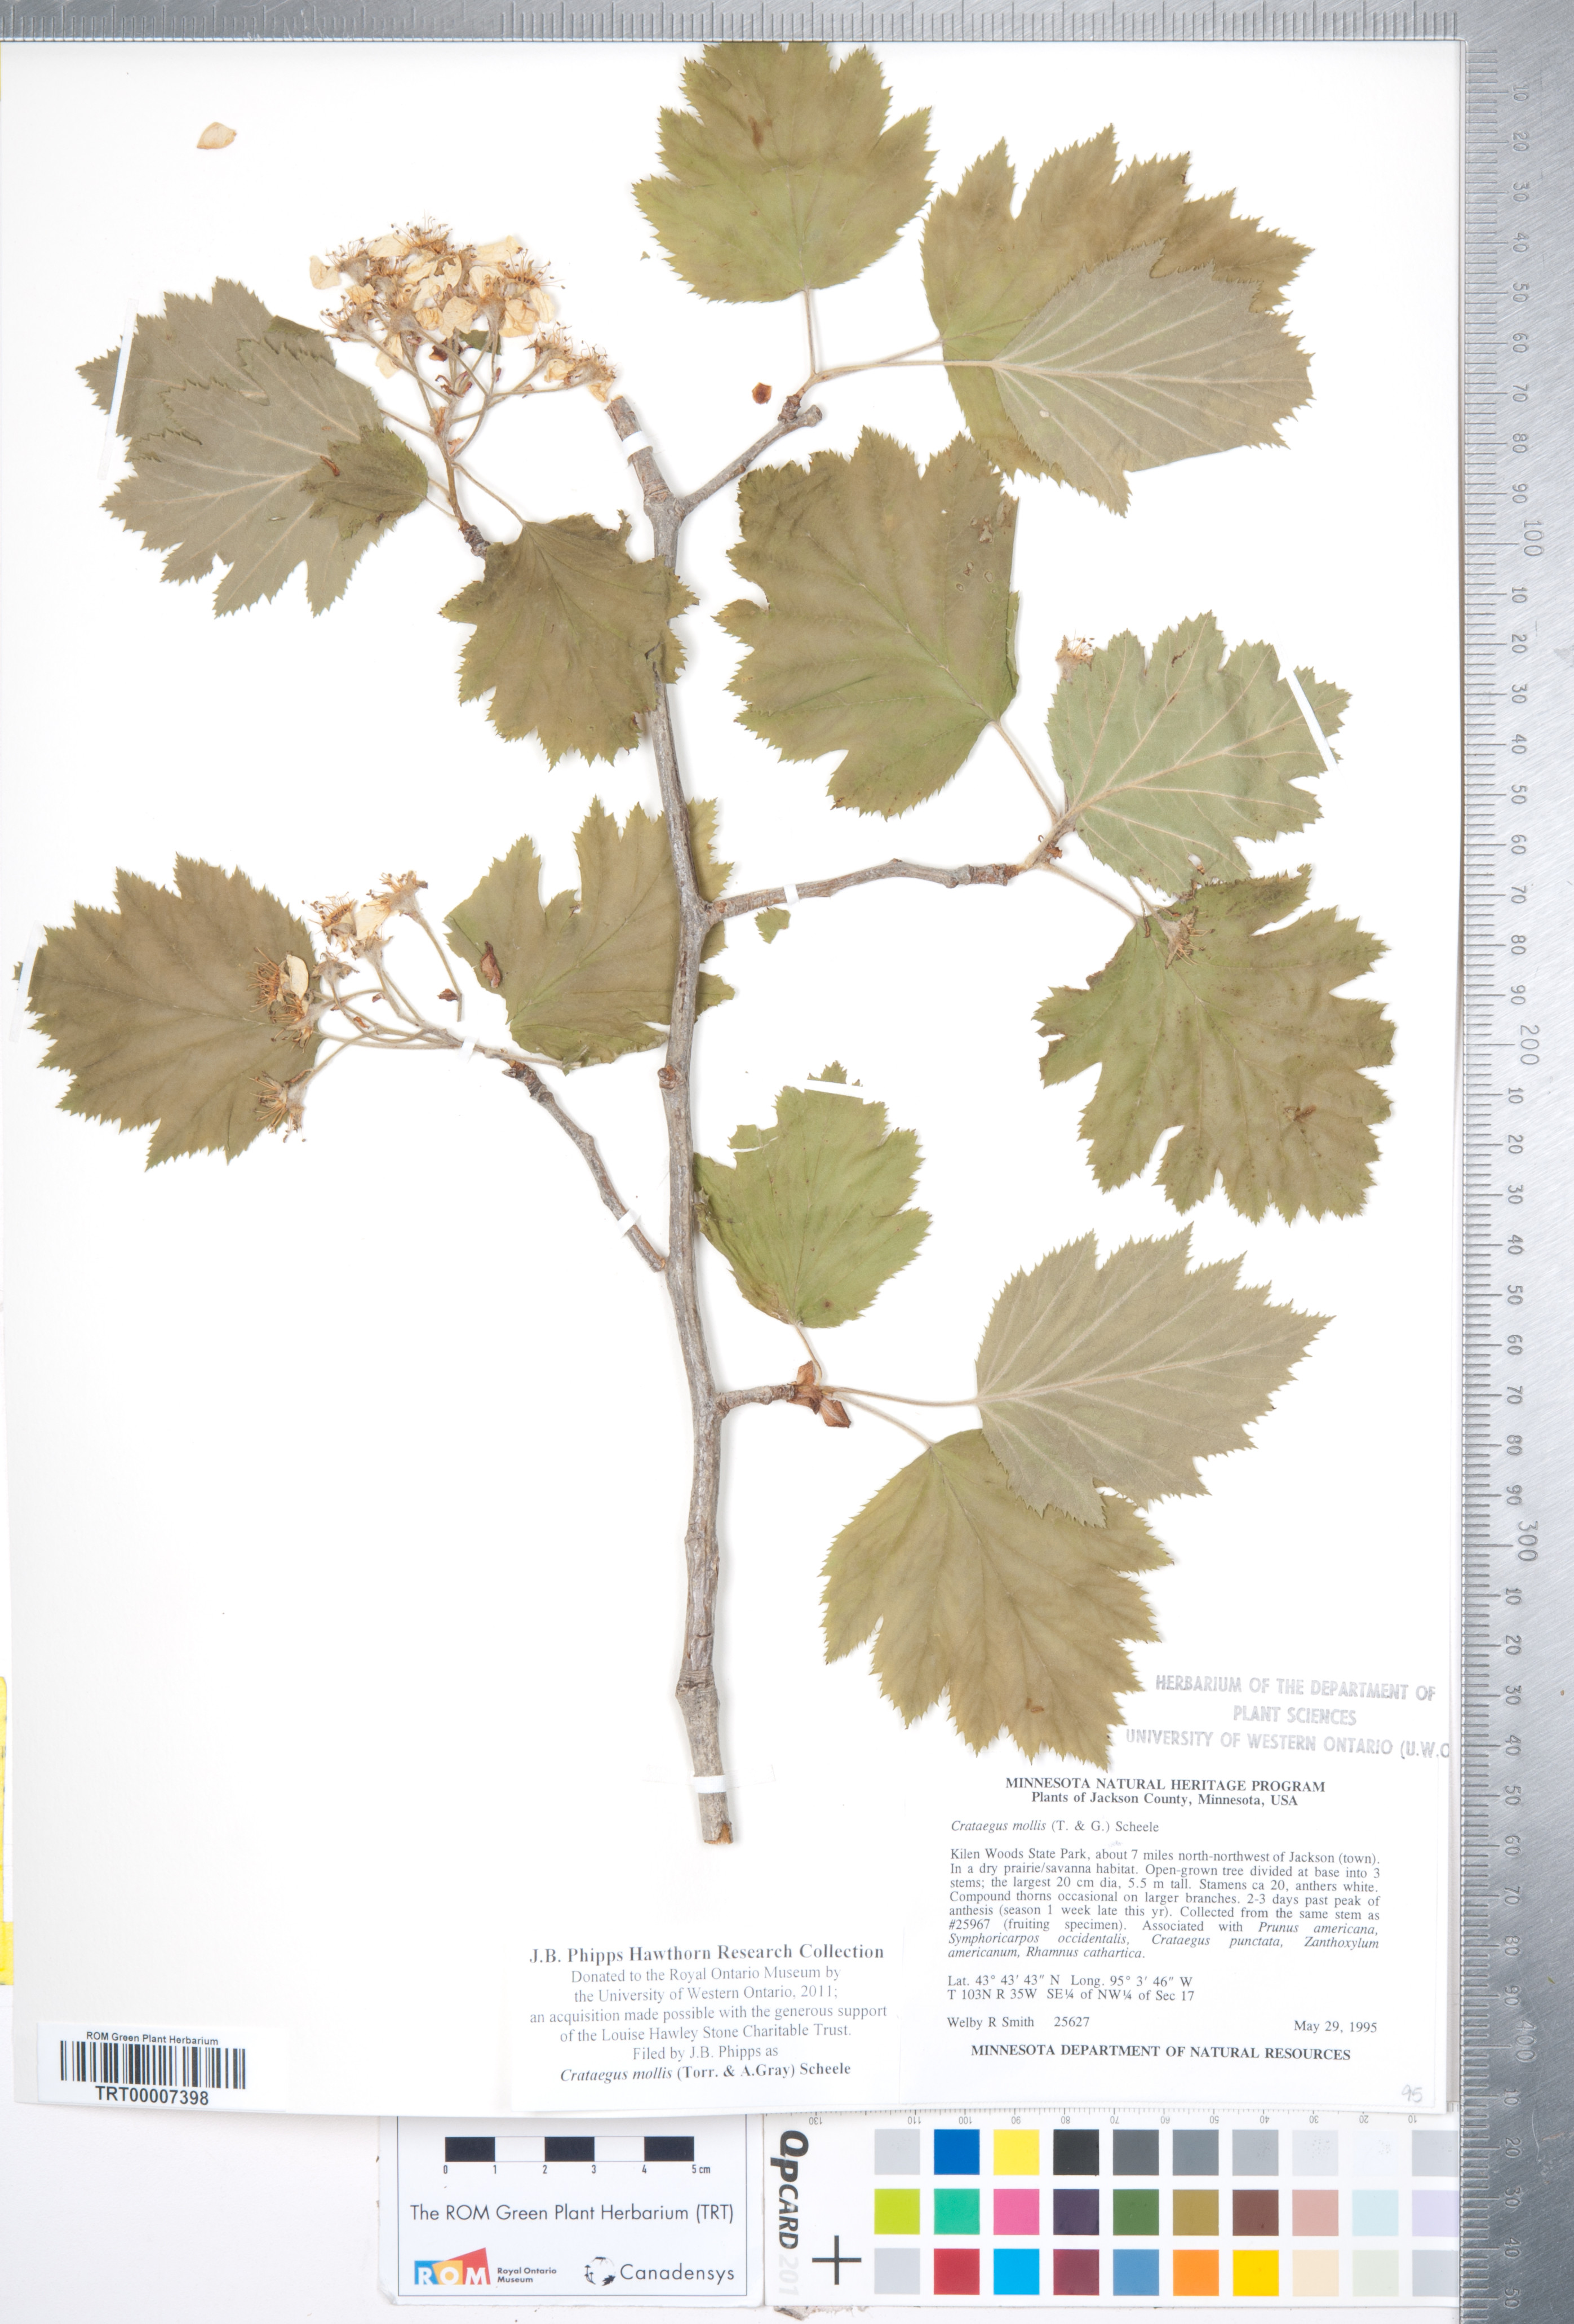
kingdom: Plantae
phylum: Tracheophyta
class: Magnoliopsida
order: Rosales
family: Rosaceae
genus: Crataegus
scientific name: Crataegus mollis
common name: Downy hawthorn
